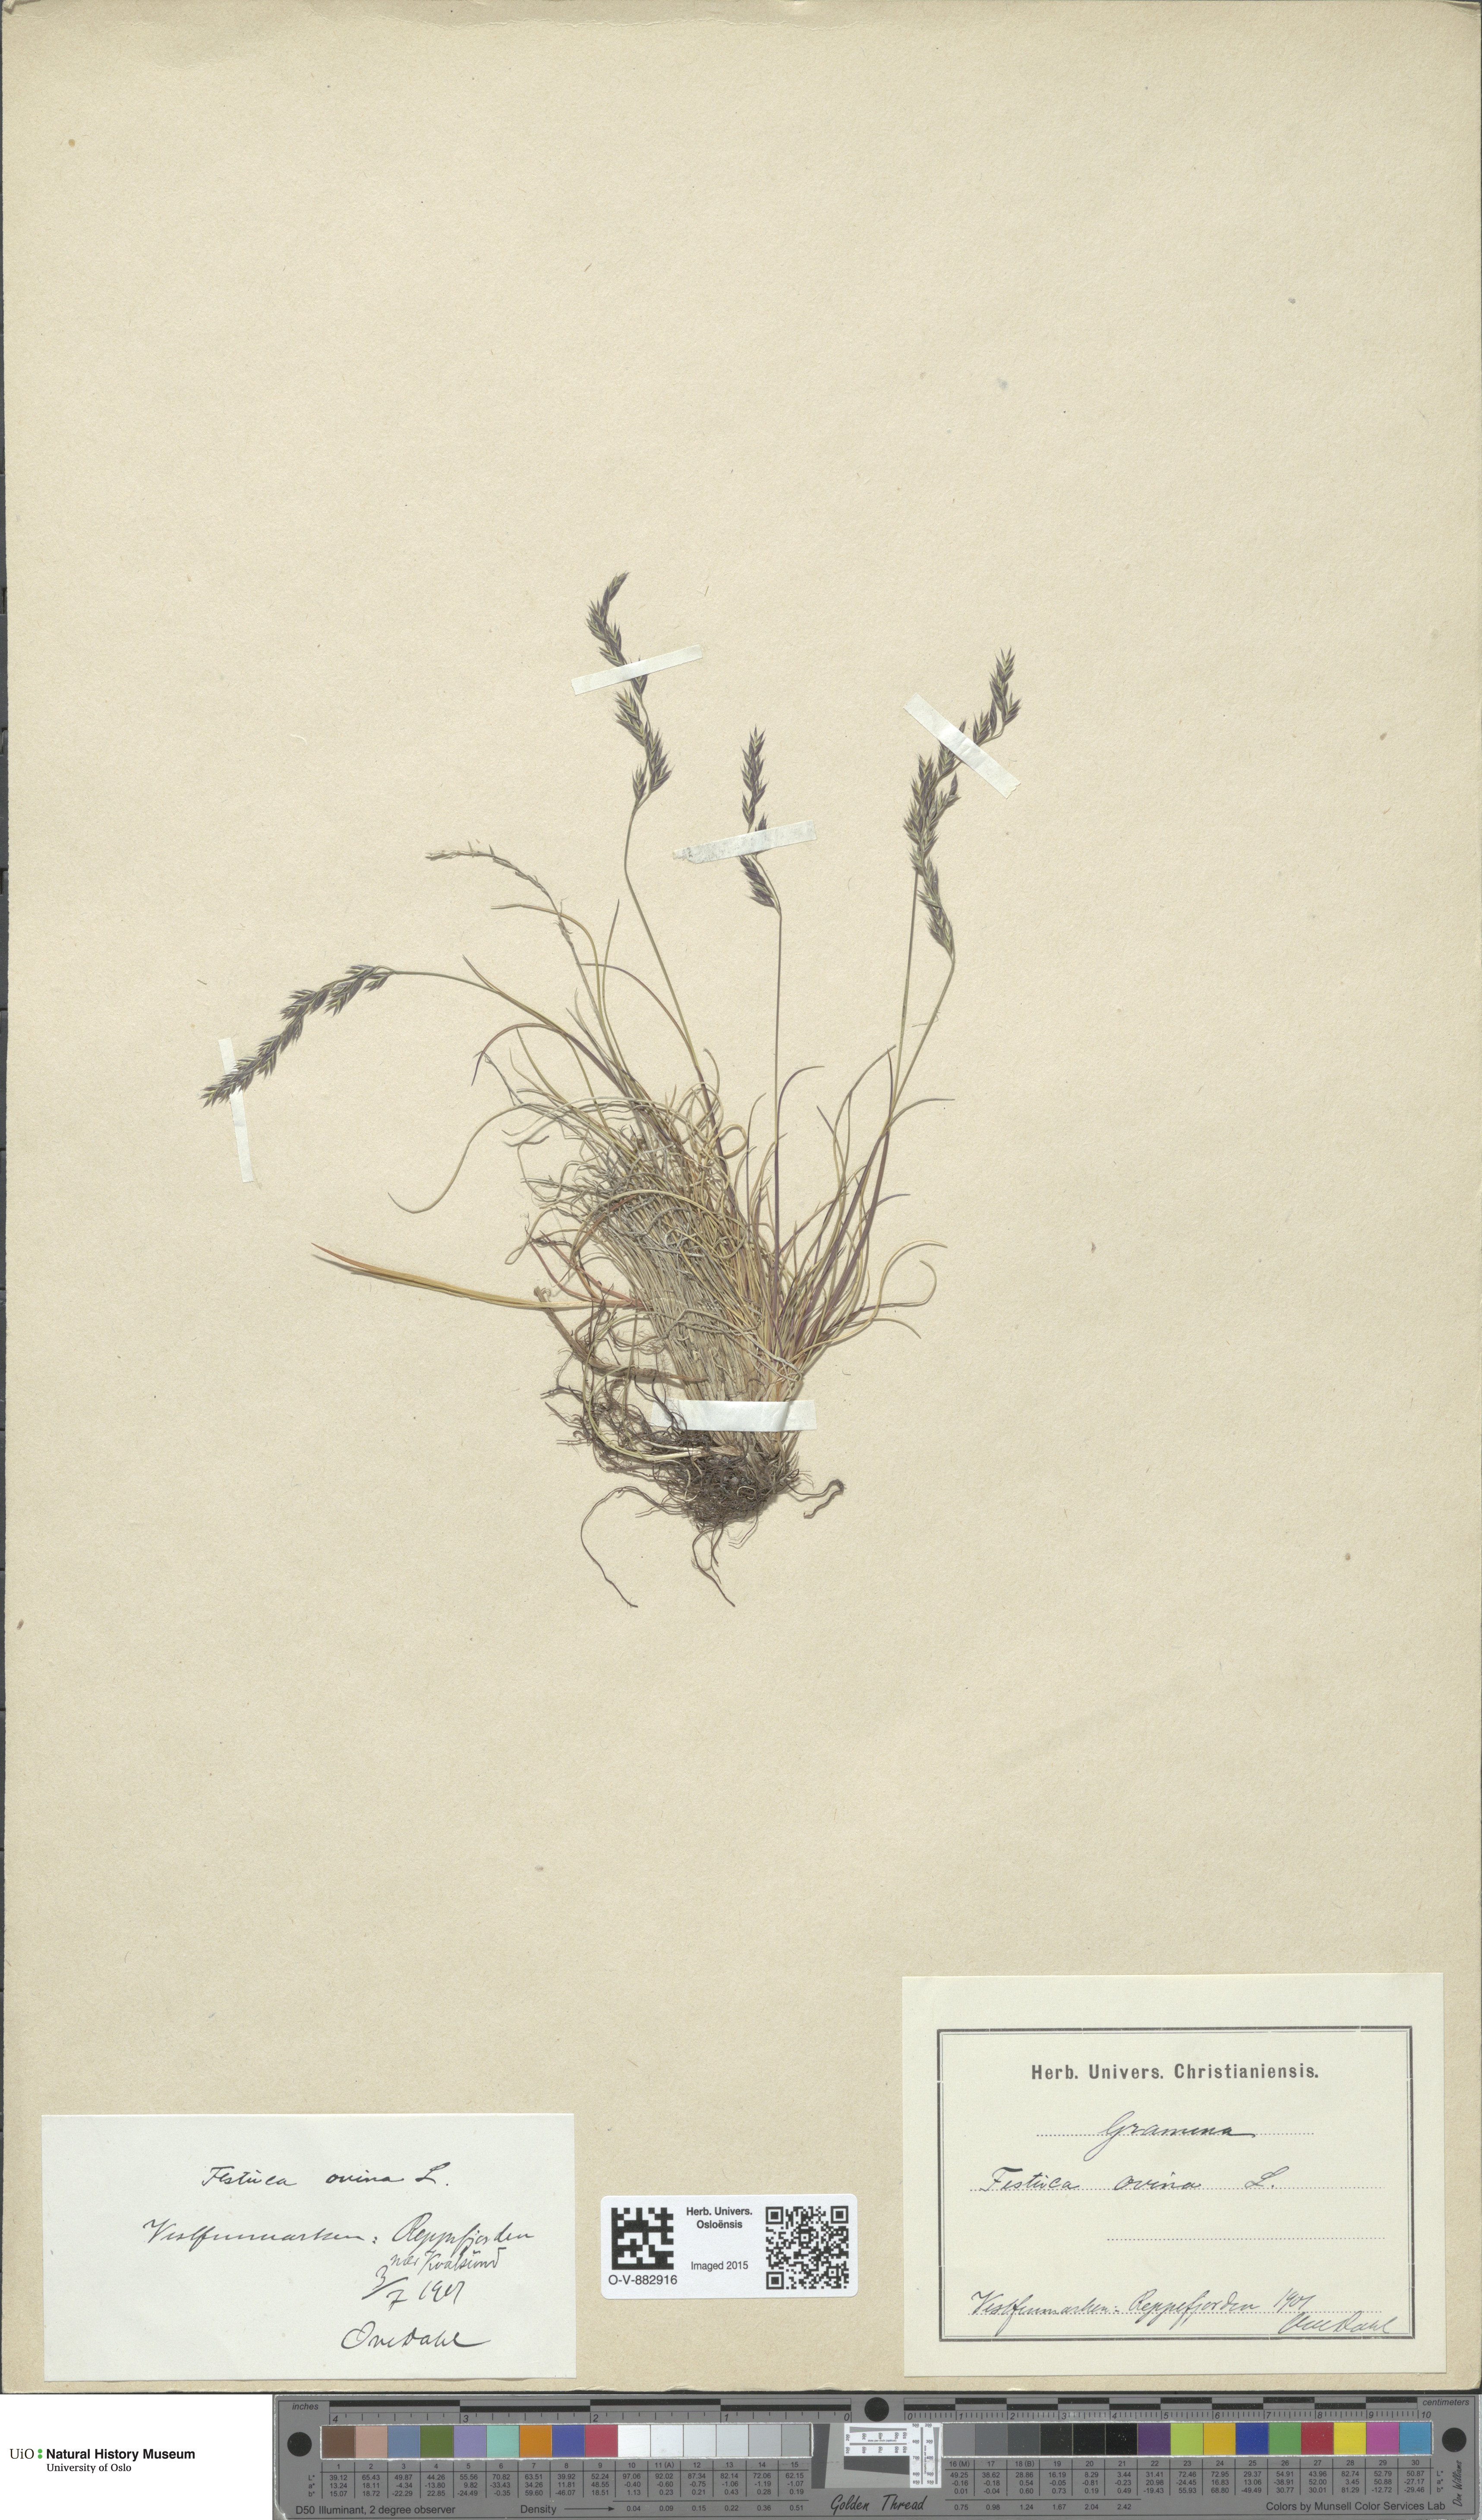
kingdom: Plantae
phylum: Tracheophyta
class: Liliopsida
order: Poales
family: Poaceae
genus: Festuca
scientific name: Festuca ovina
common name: Sheep fescue
